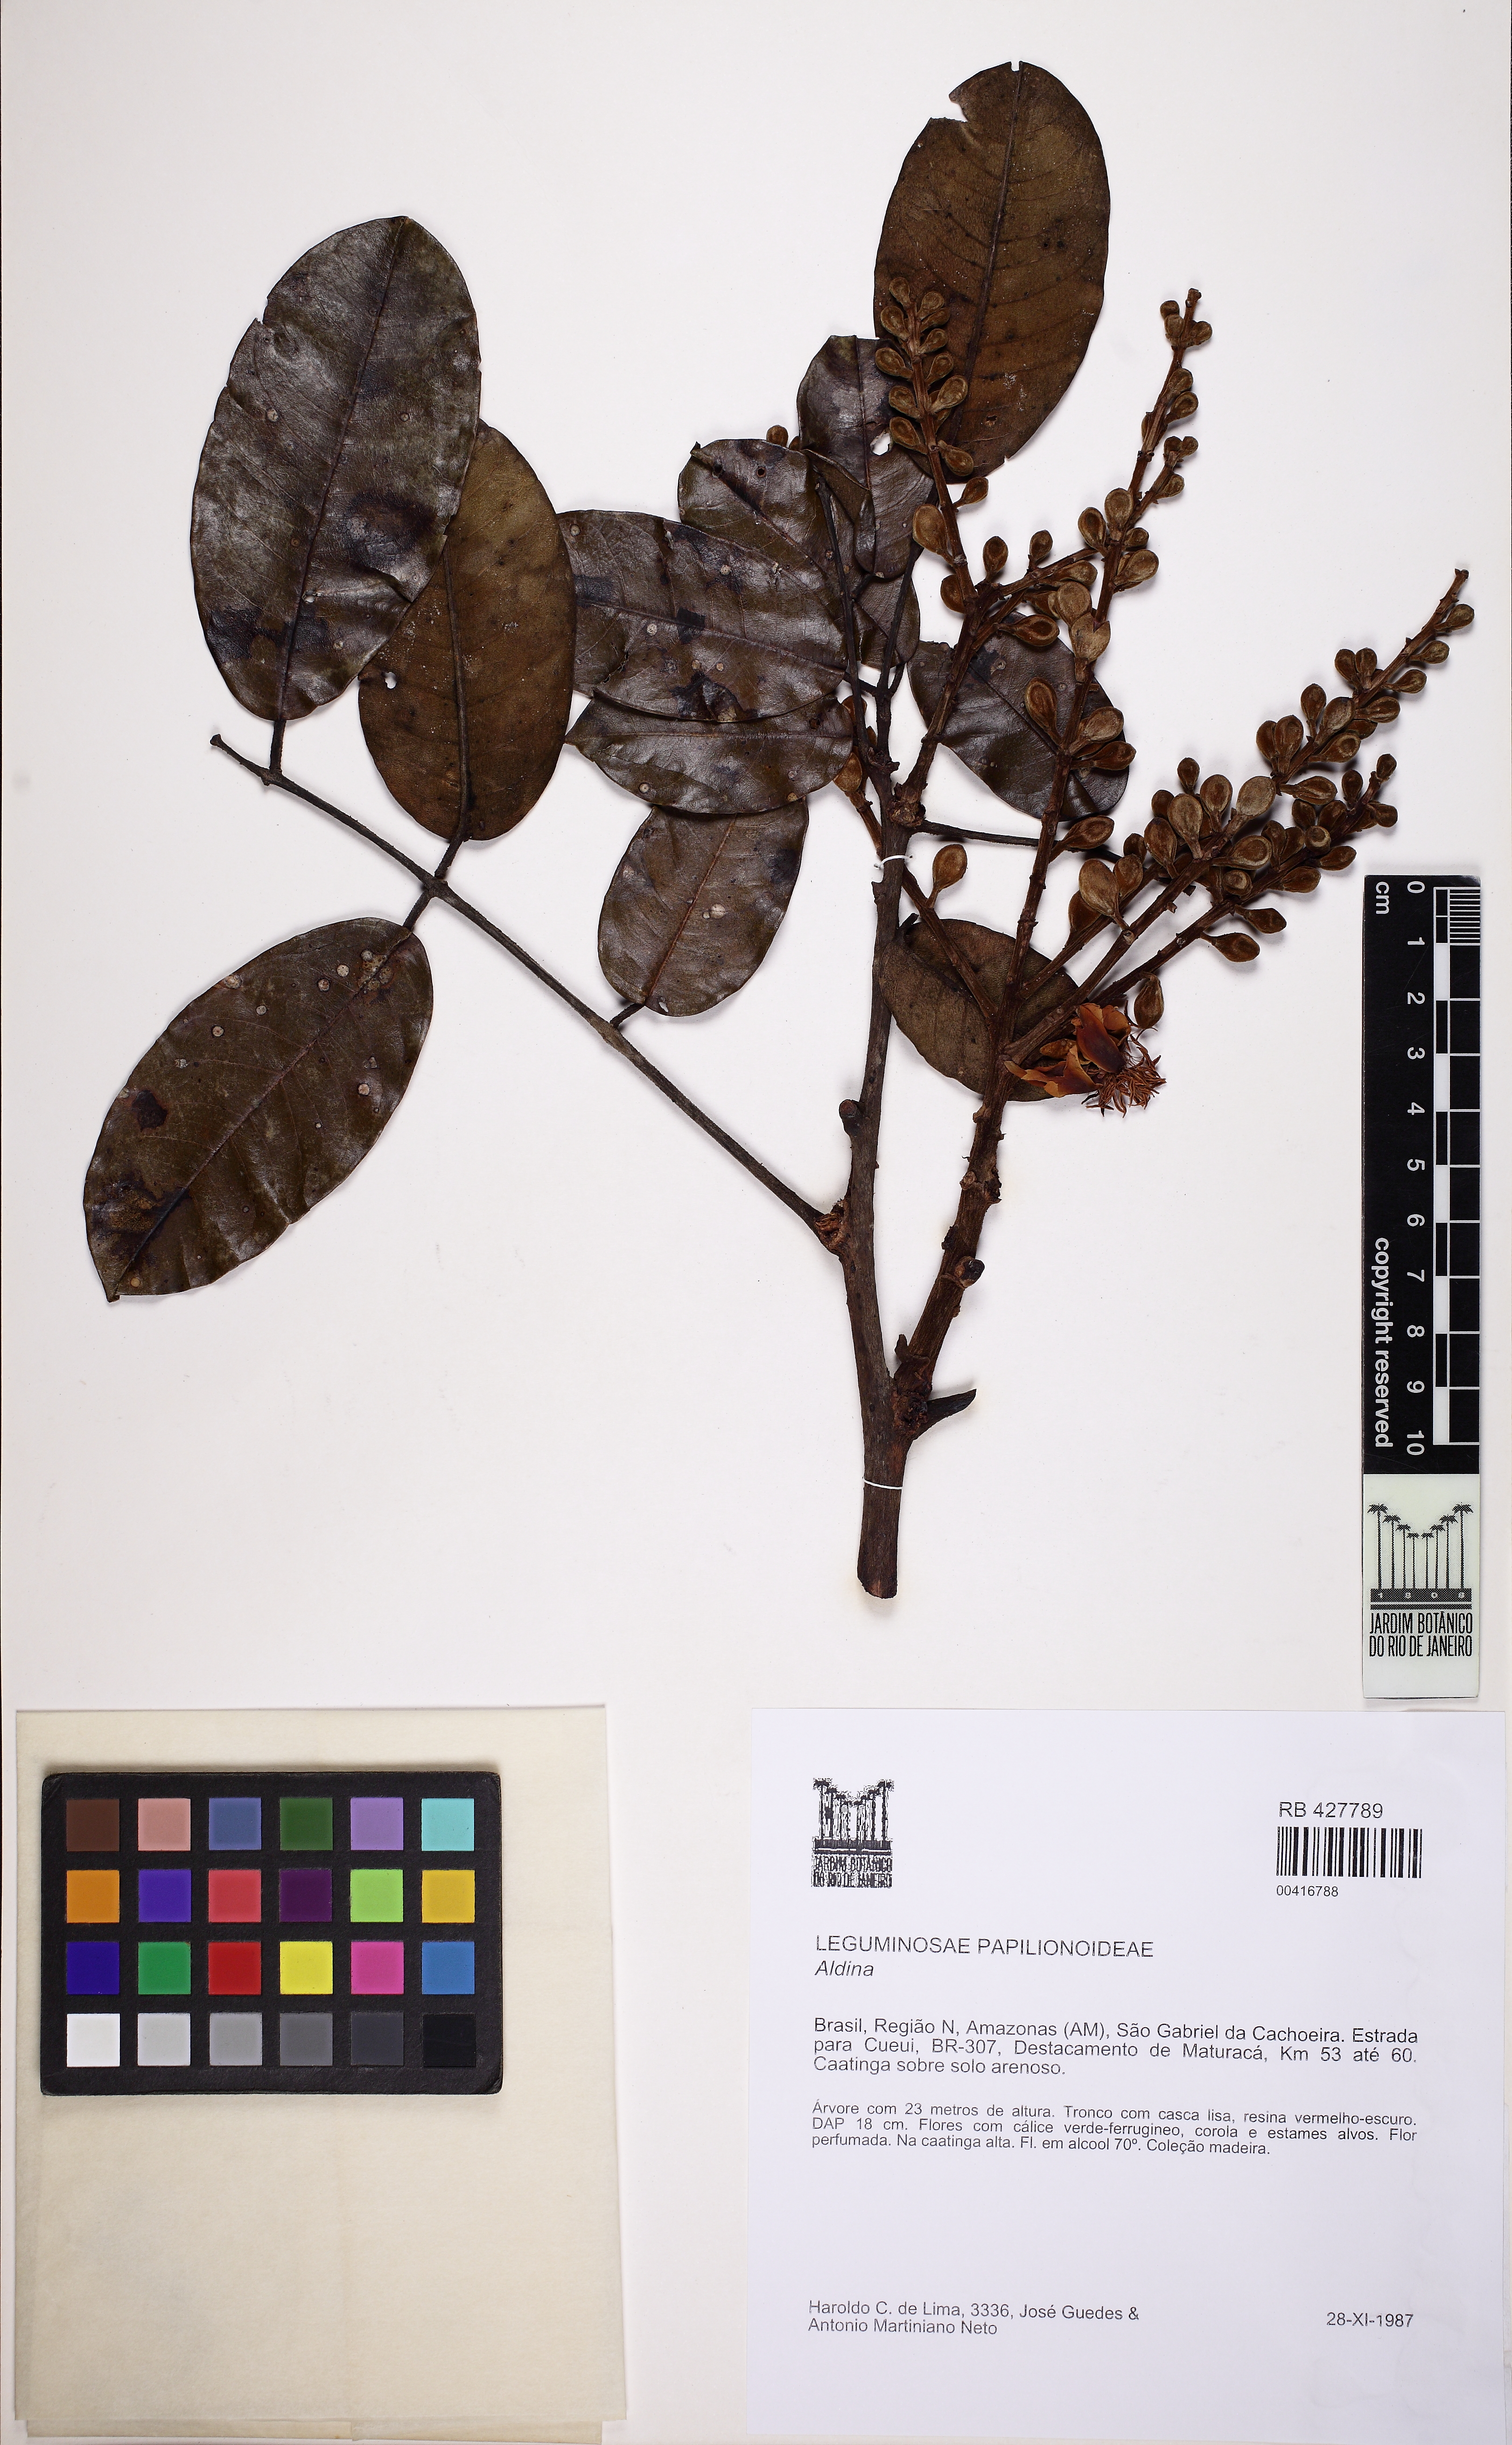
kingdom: Plantae
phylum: Tracheophyta
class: Magnoliopsida
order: Fabales
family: Fabaceae
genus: Aldina
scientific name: Aldina kunhardtiana
